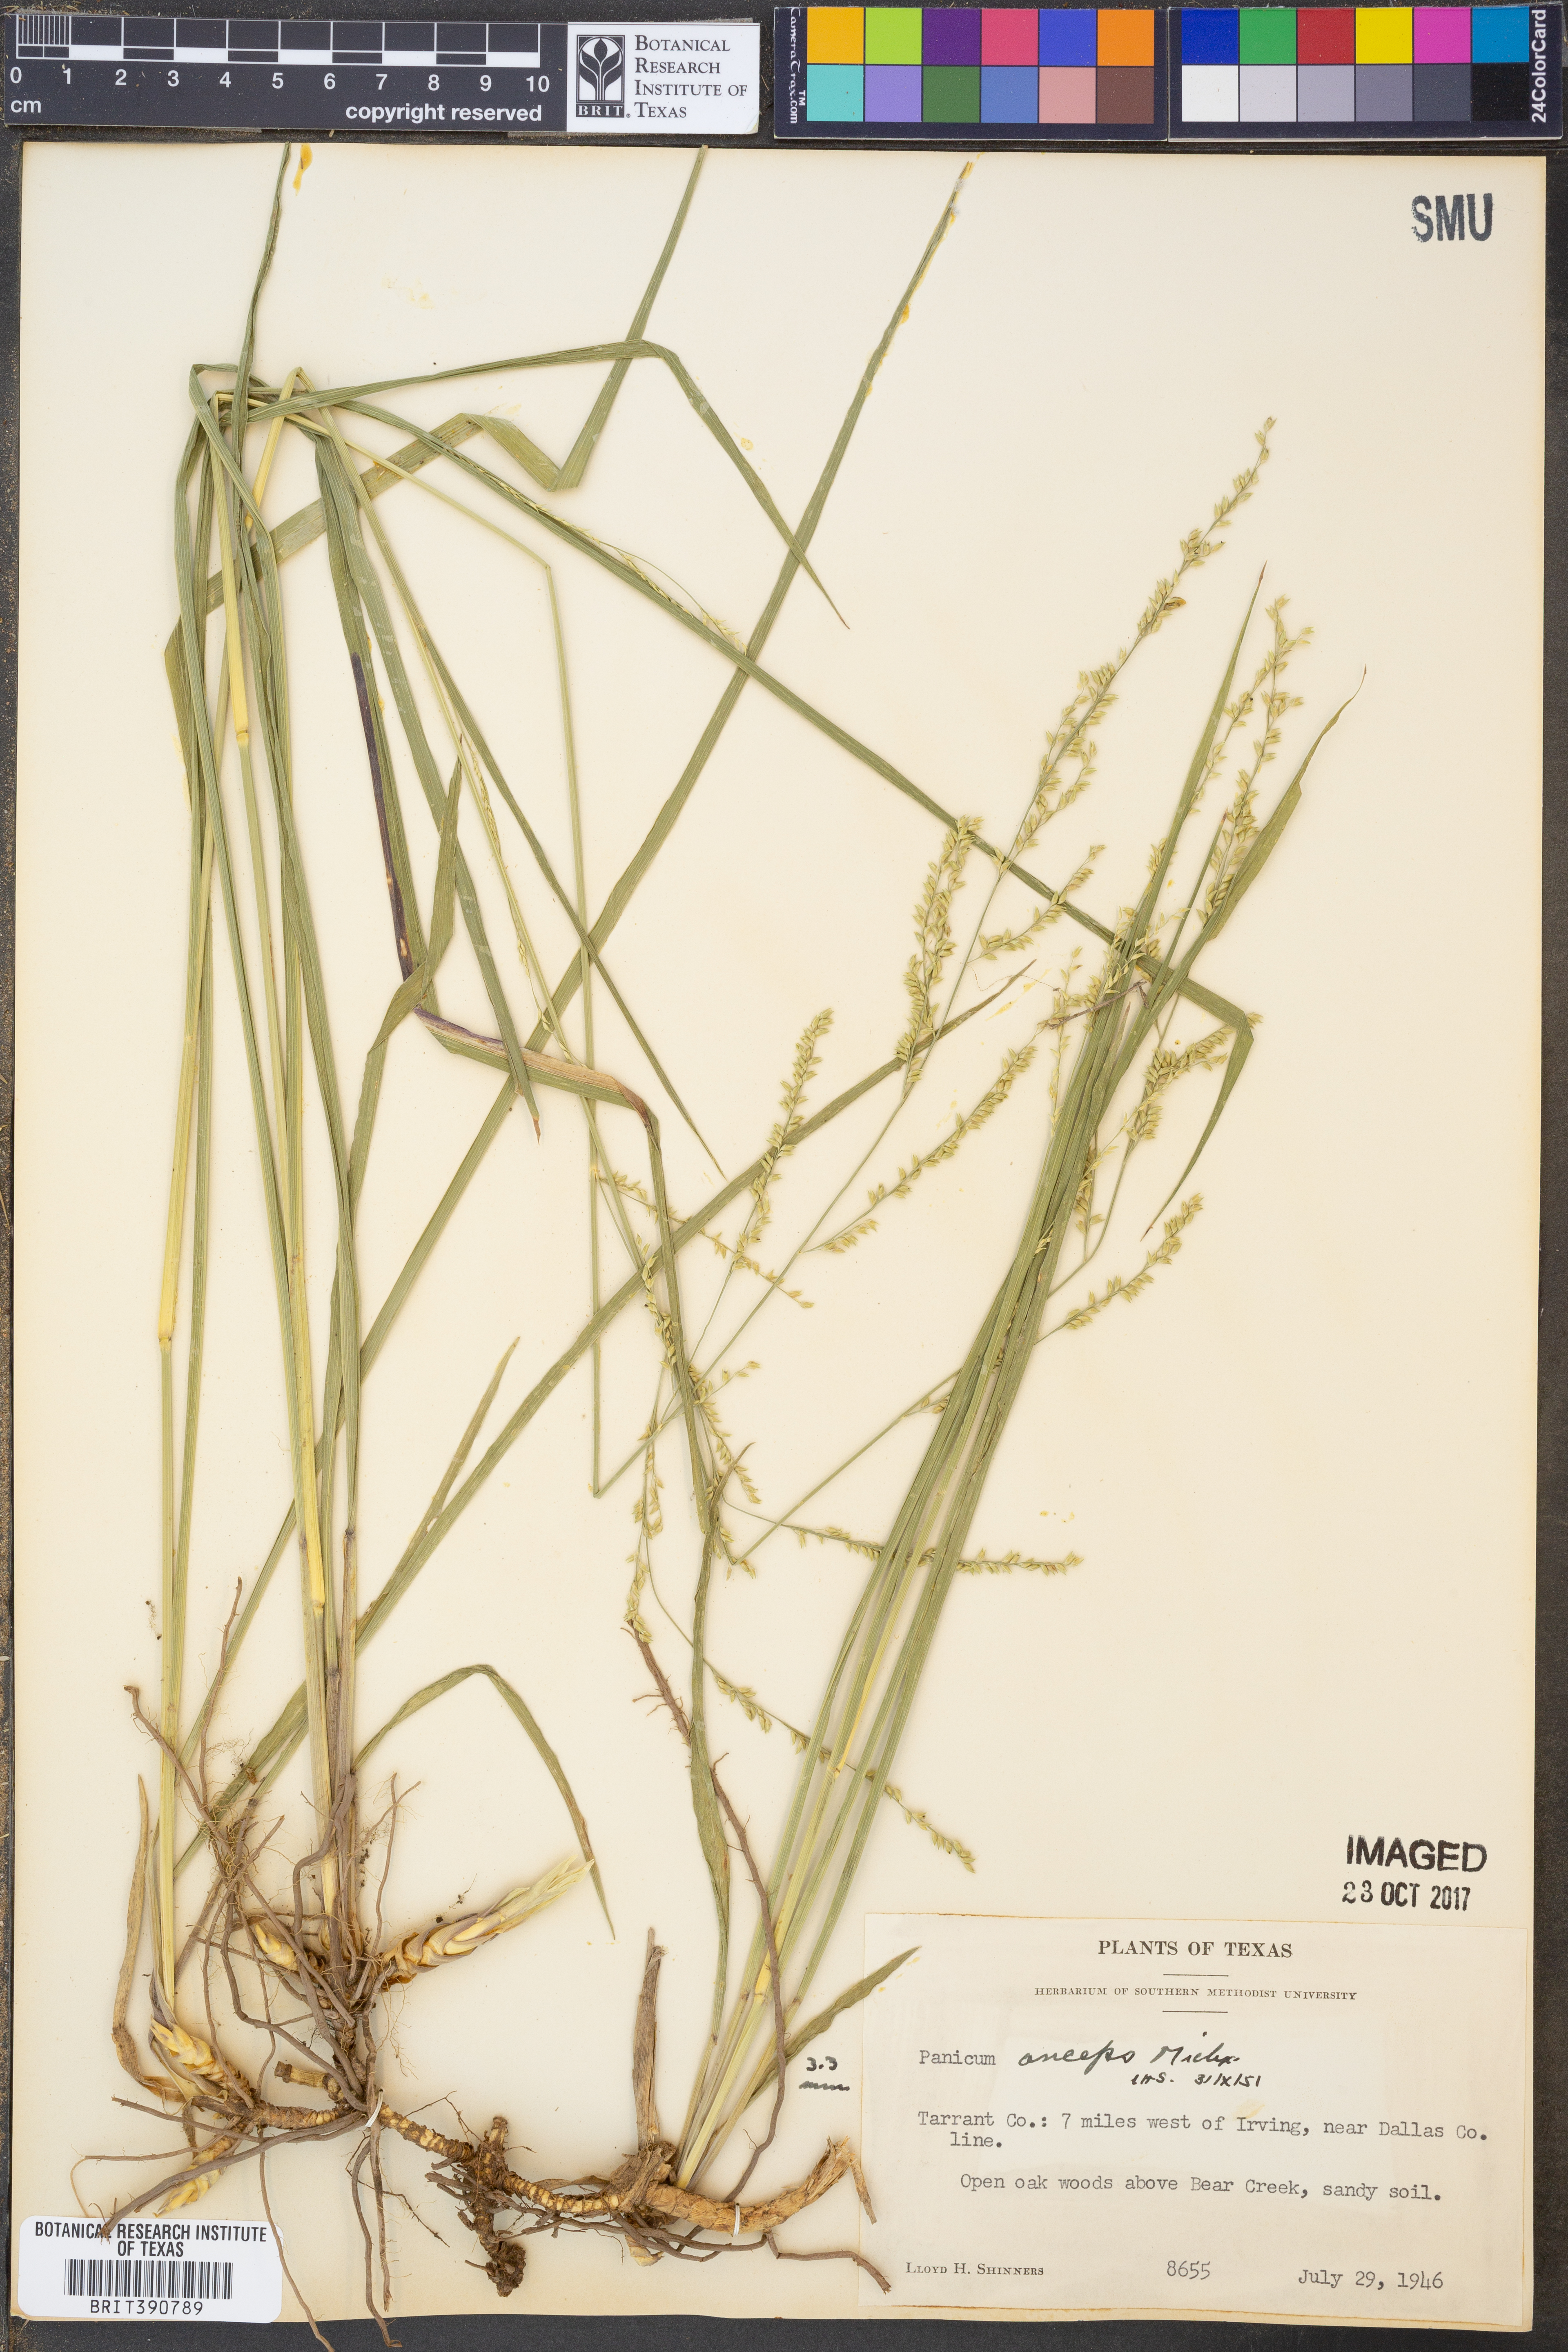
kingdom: Plantae
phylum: Tracheophyta
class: Liliopsida
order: Poales
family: Poaceae
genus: Coleataenia
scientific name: Coleataenia anceps
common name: Beaked panic grass
